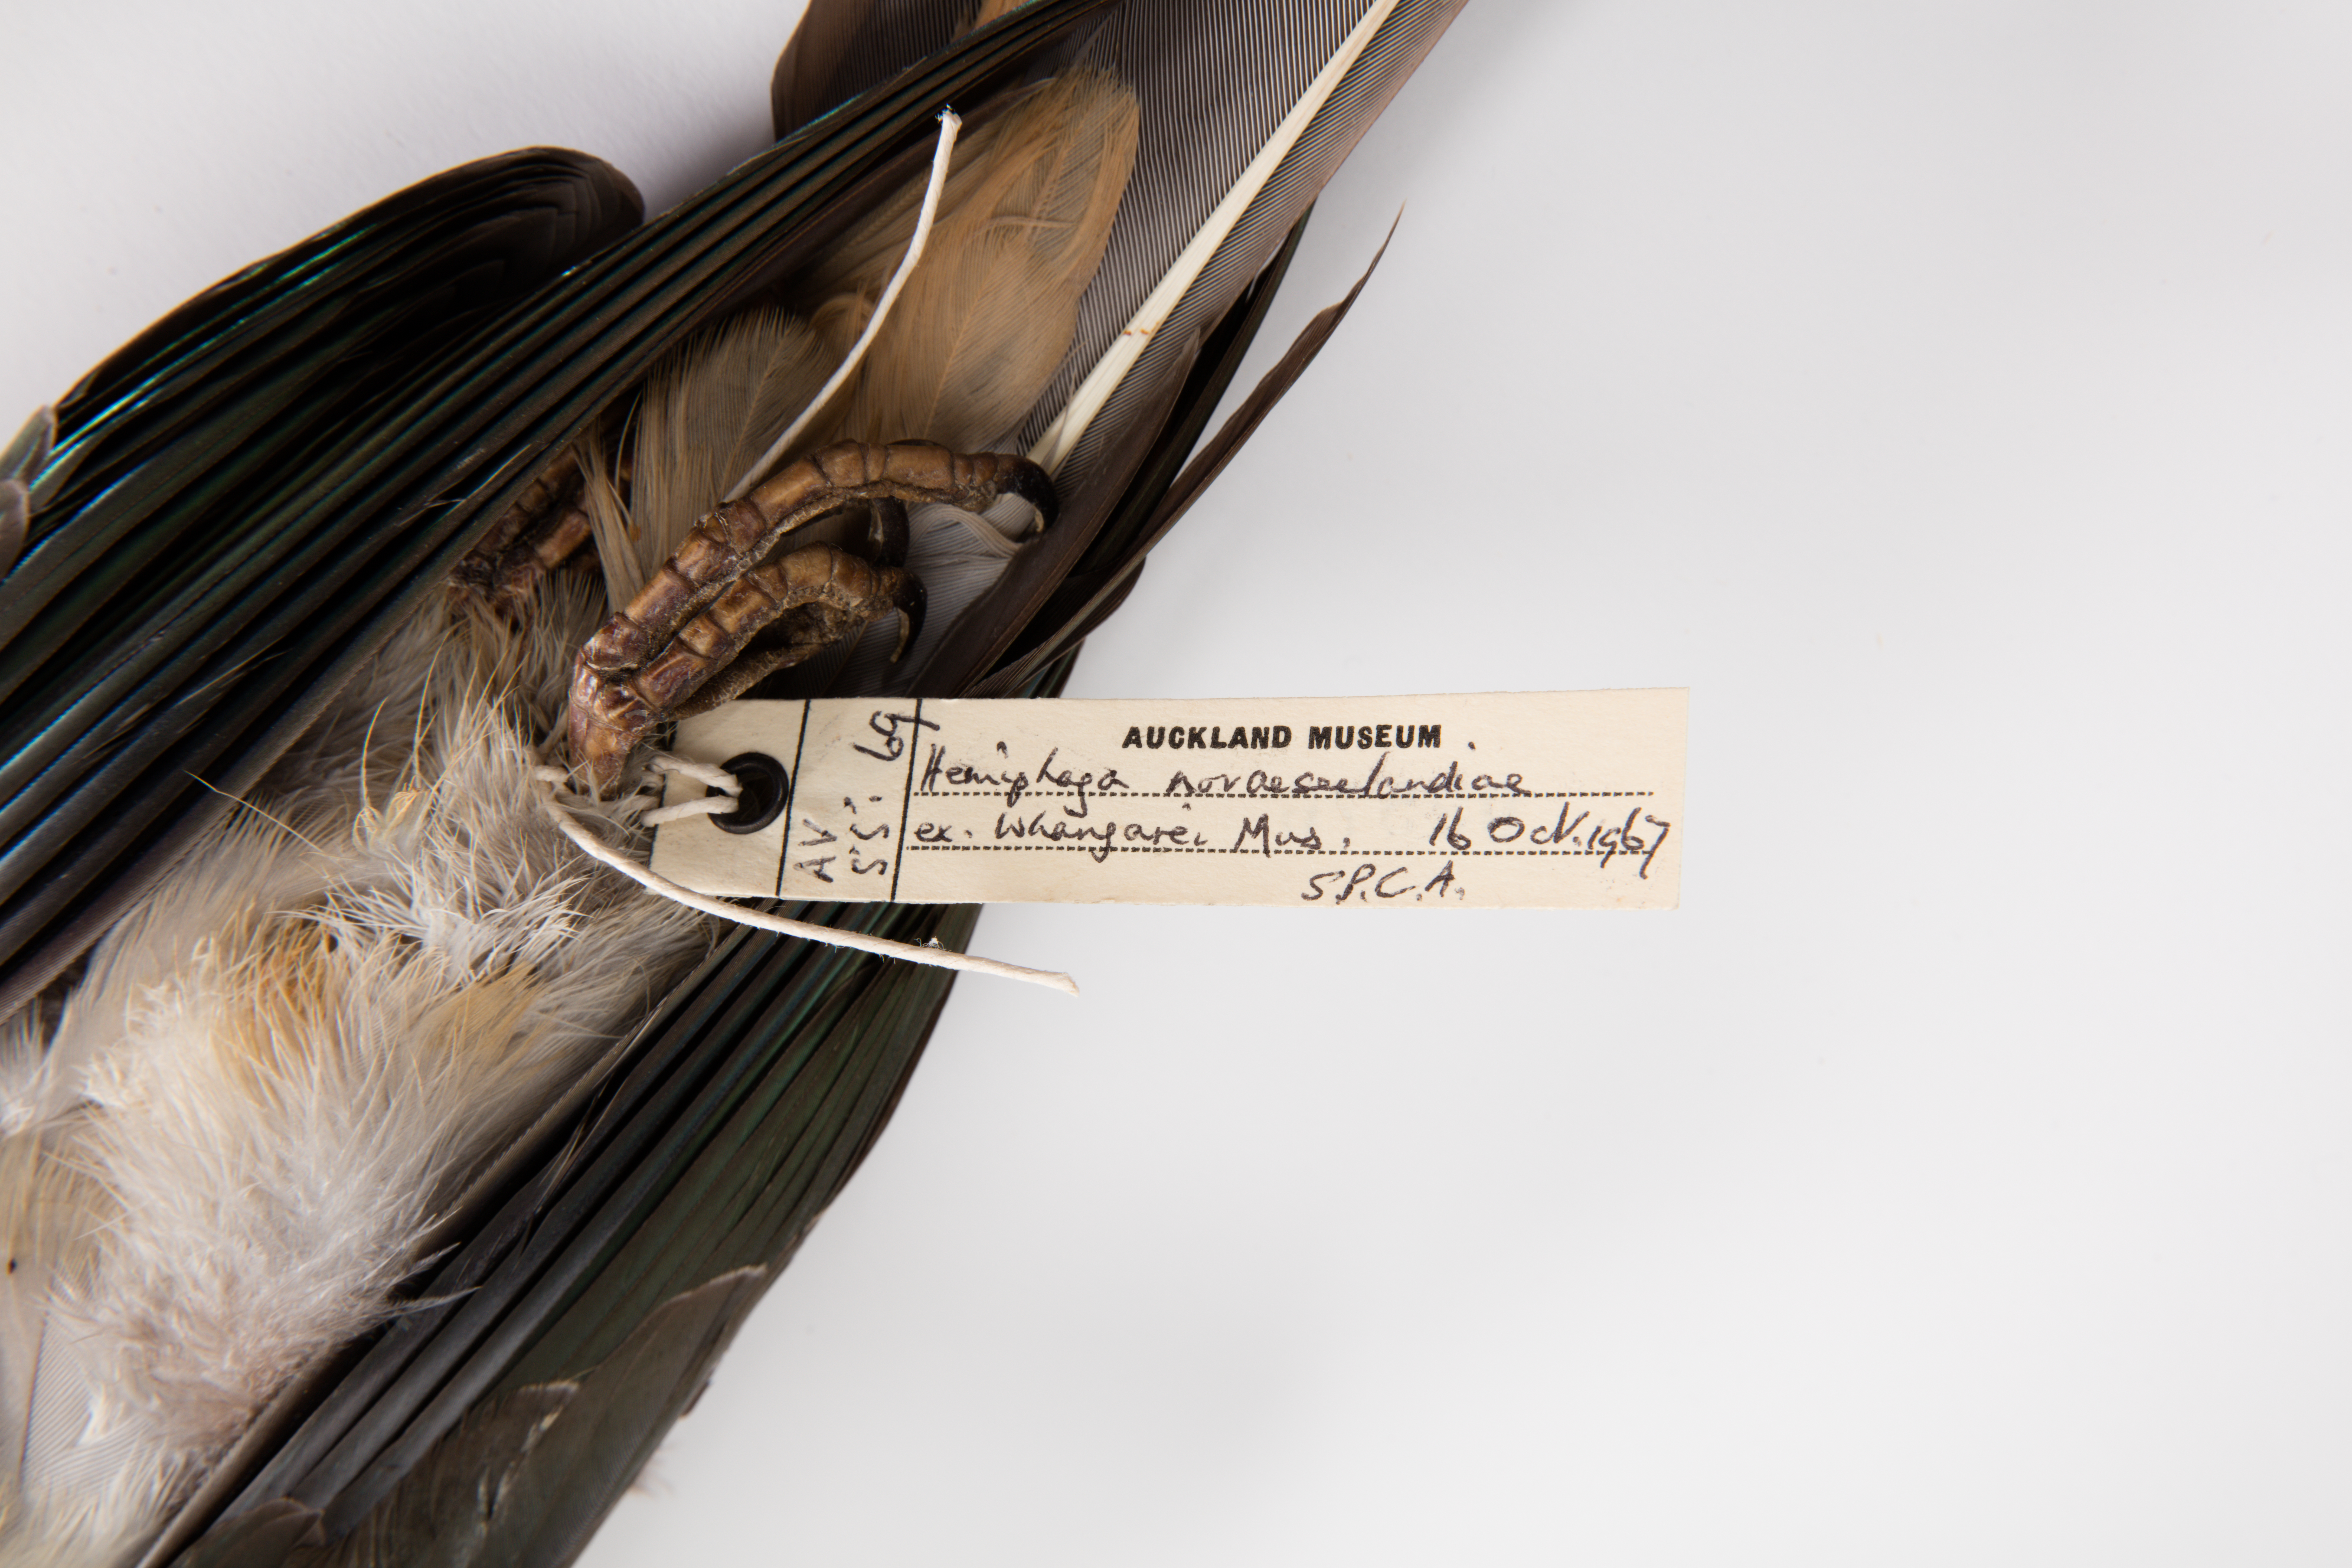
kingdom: Animalia
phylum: Chordata
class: Aves
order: Columbiformes
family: Columbidae
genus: Hemiphaga
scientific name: Hemiphaga novaeseelandiae
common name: New zealand pigeon
